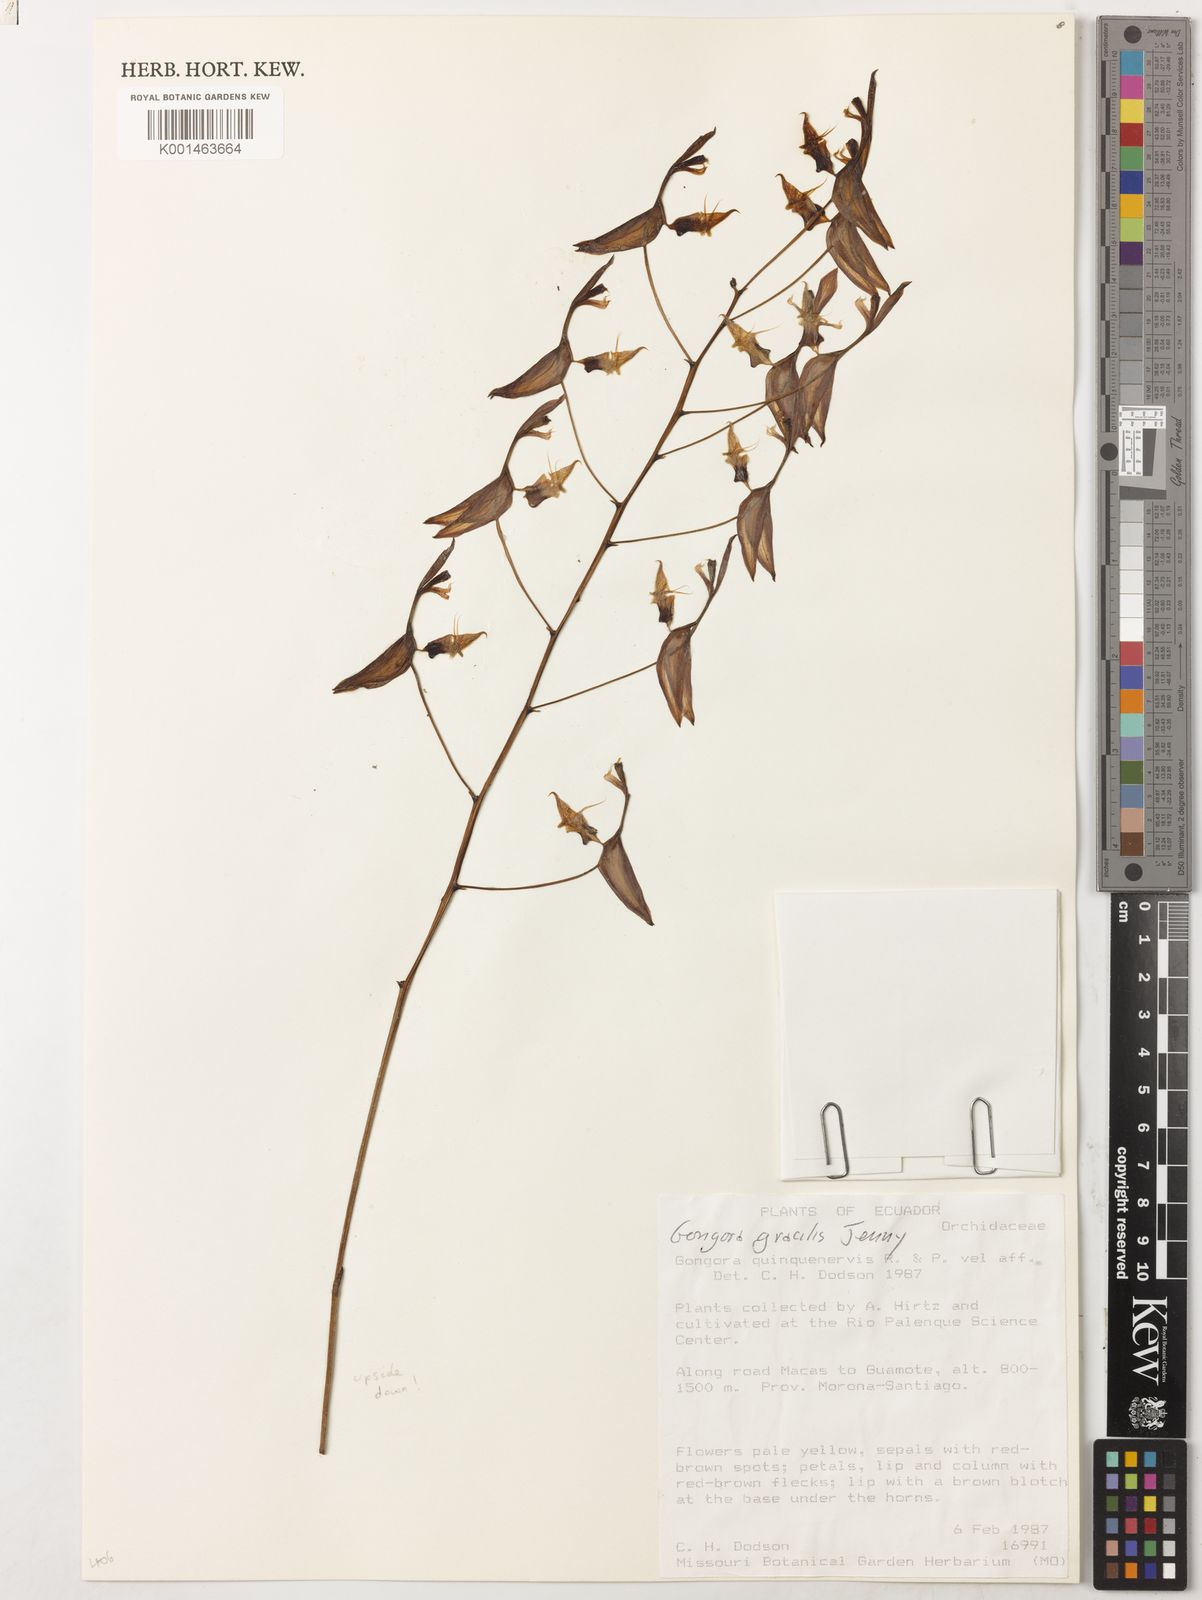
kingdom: Plantae
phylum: Tracheophyta
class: Liliopsida
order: Asparagales
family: Orchidaceae
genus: Gongora
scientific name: Gongora pleiochroma
